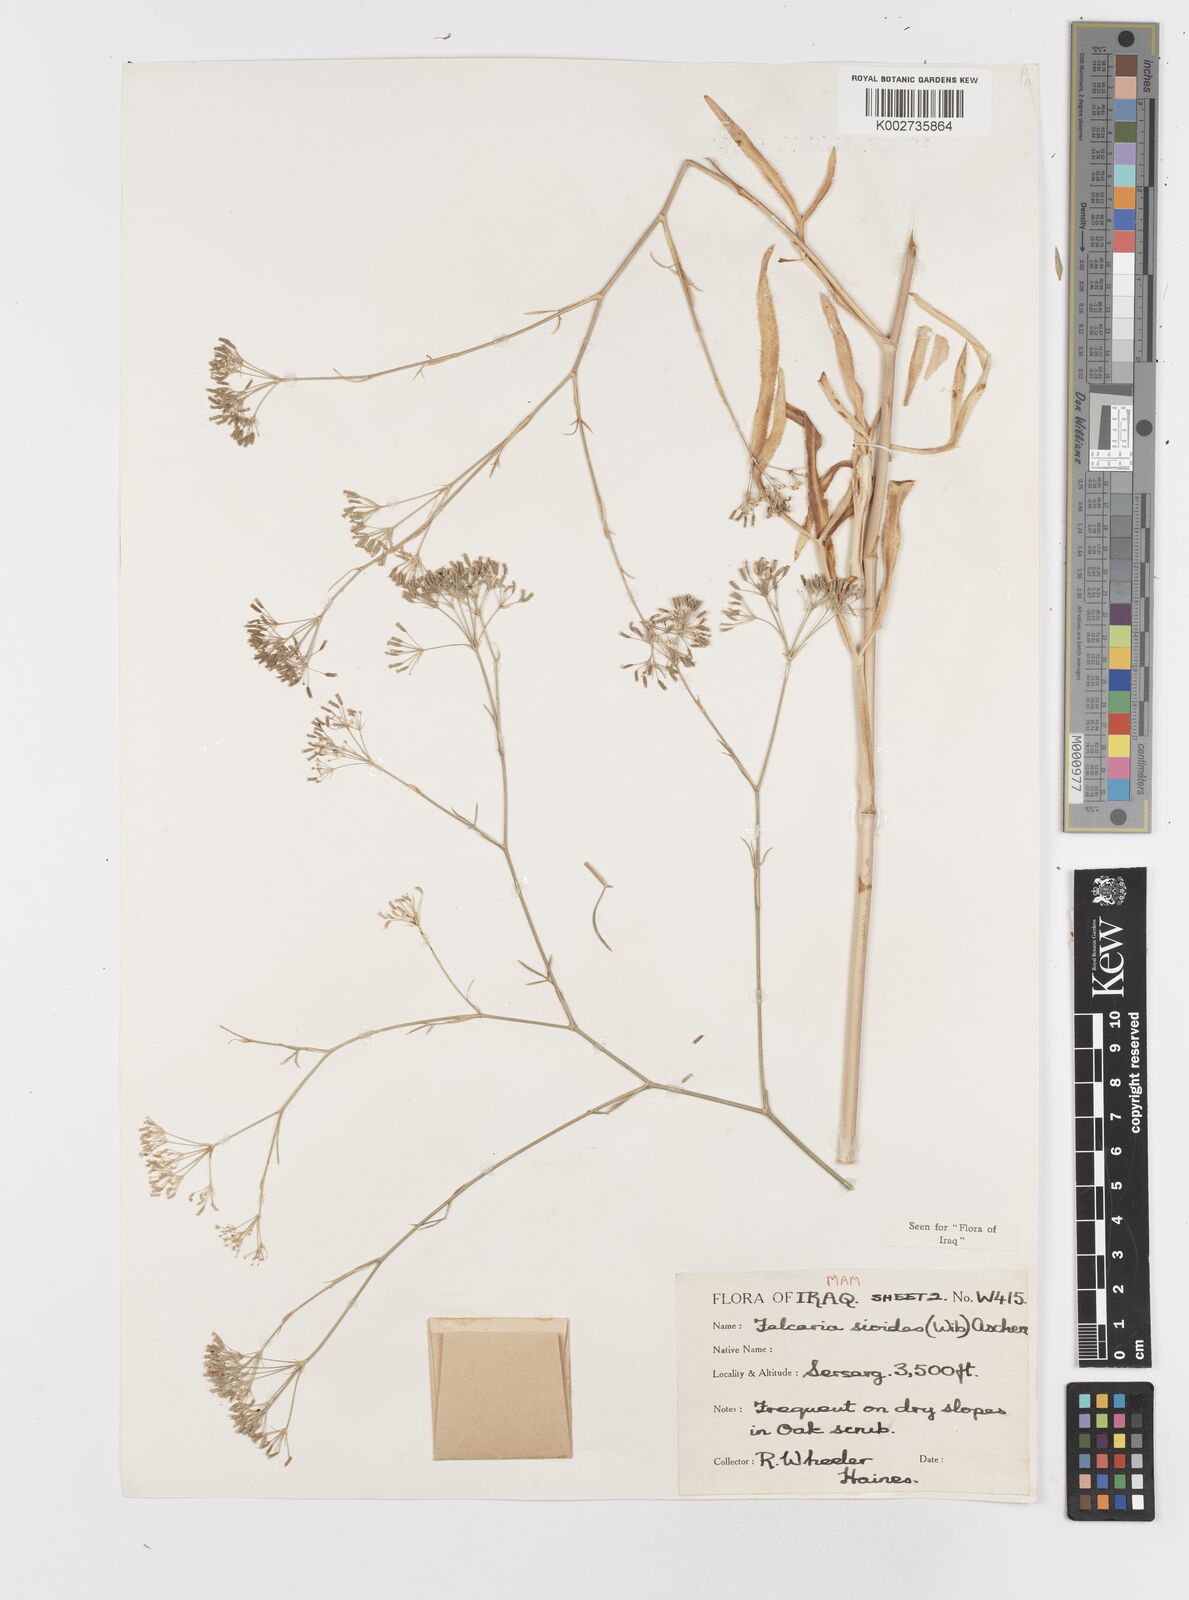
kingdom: Plantae
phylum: Tracheophyta
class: Magnoliopsida
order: Apiales
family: Apiaceae
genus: Falcaria
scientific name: Falcaria vulgaris
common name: Longleaf
